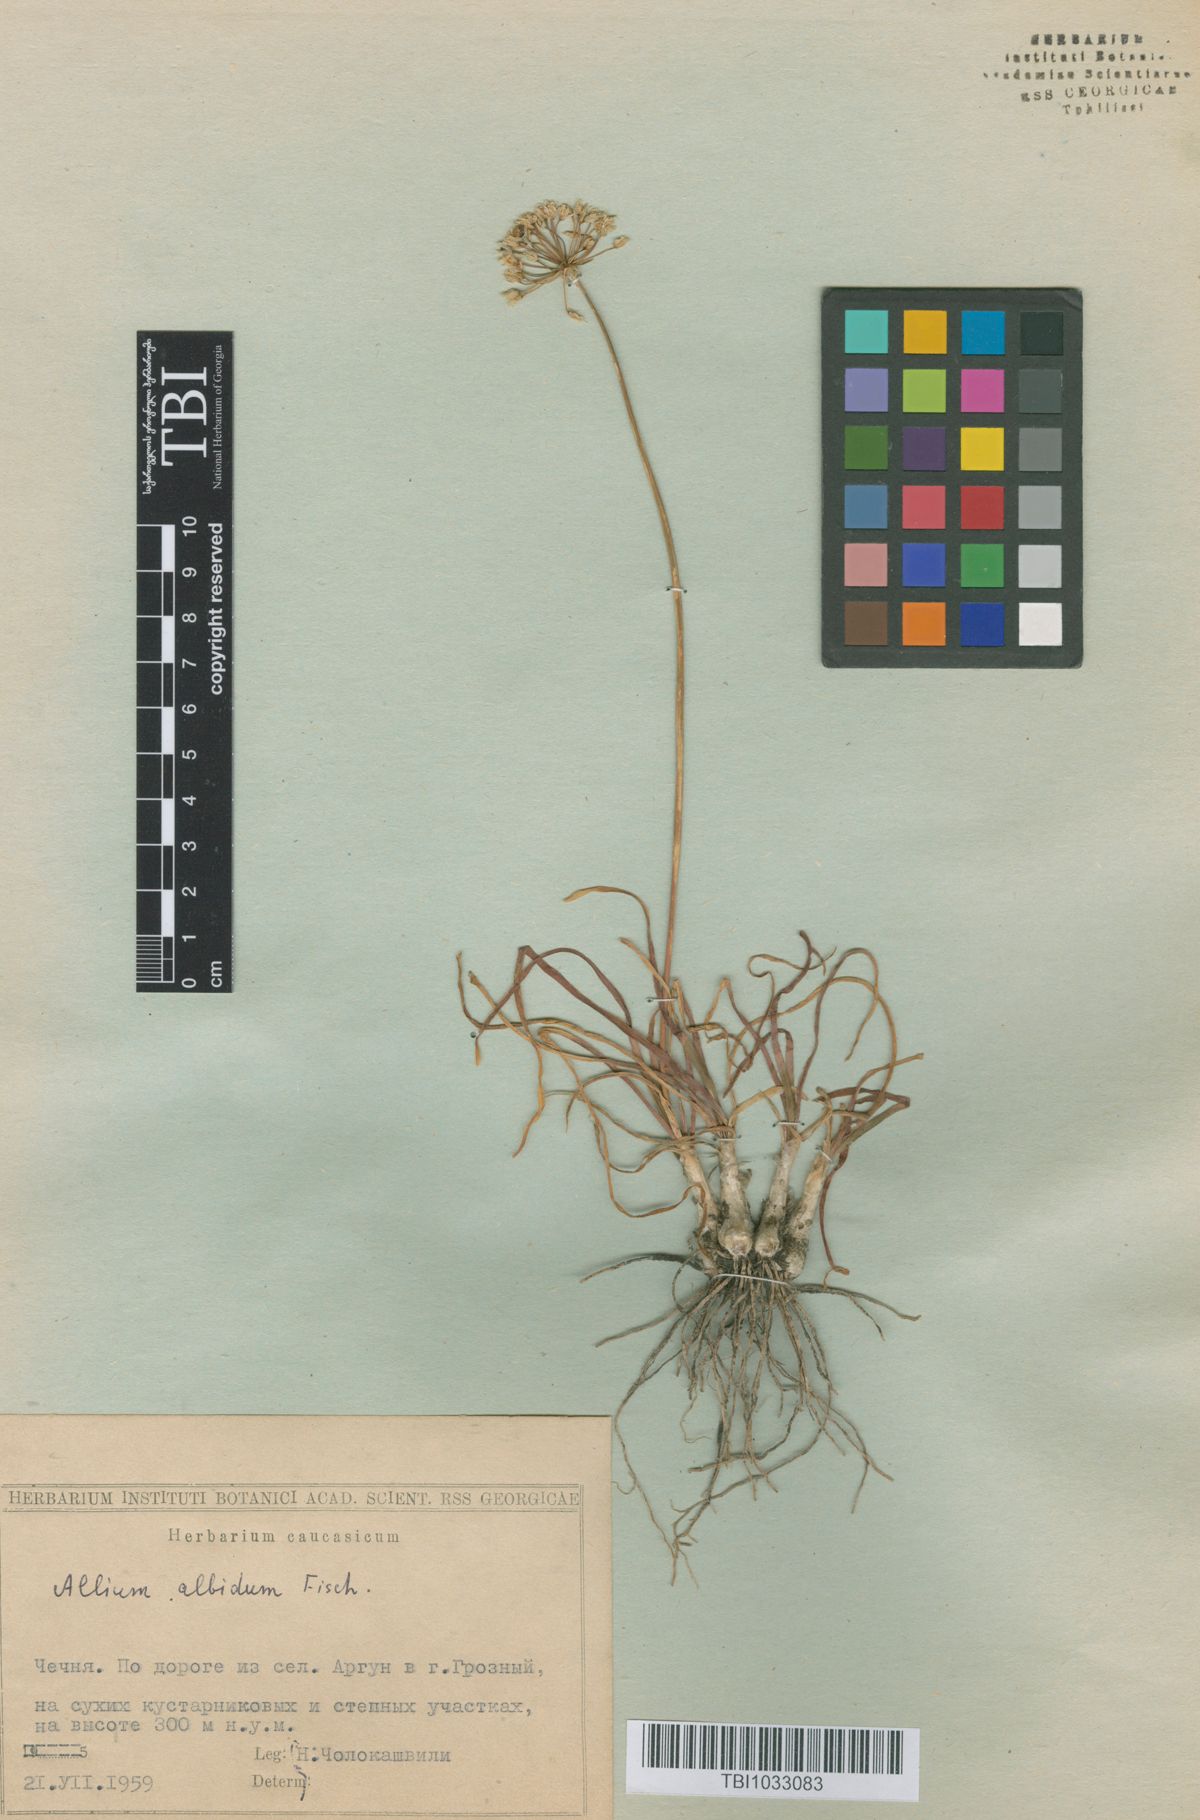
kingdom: Plantae
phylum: Tracheophyta
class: Liliopsida
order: Asparagales
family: Amaryllidaceae
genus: Allium
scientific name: Allium denudatum
